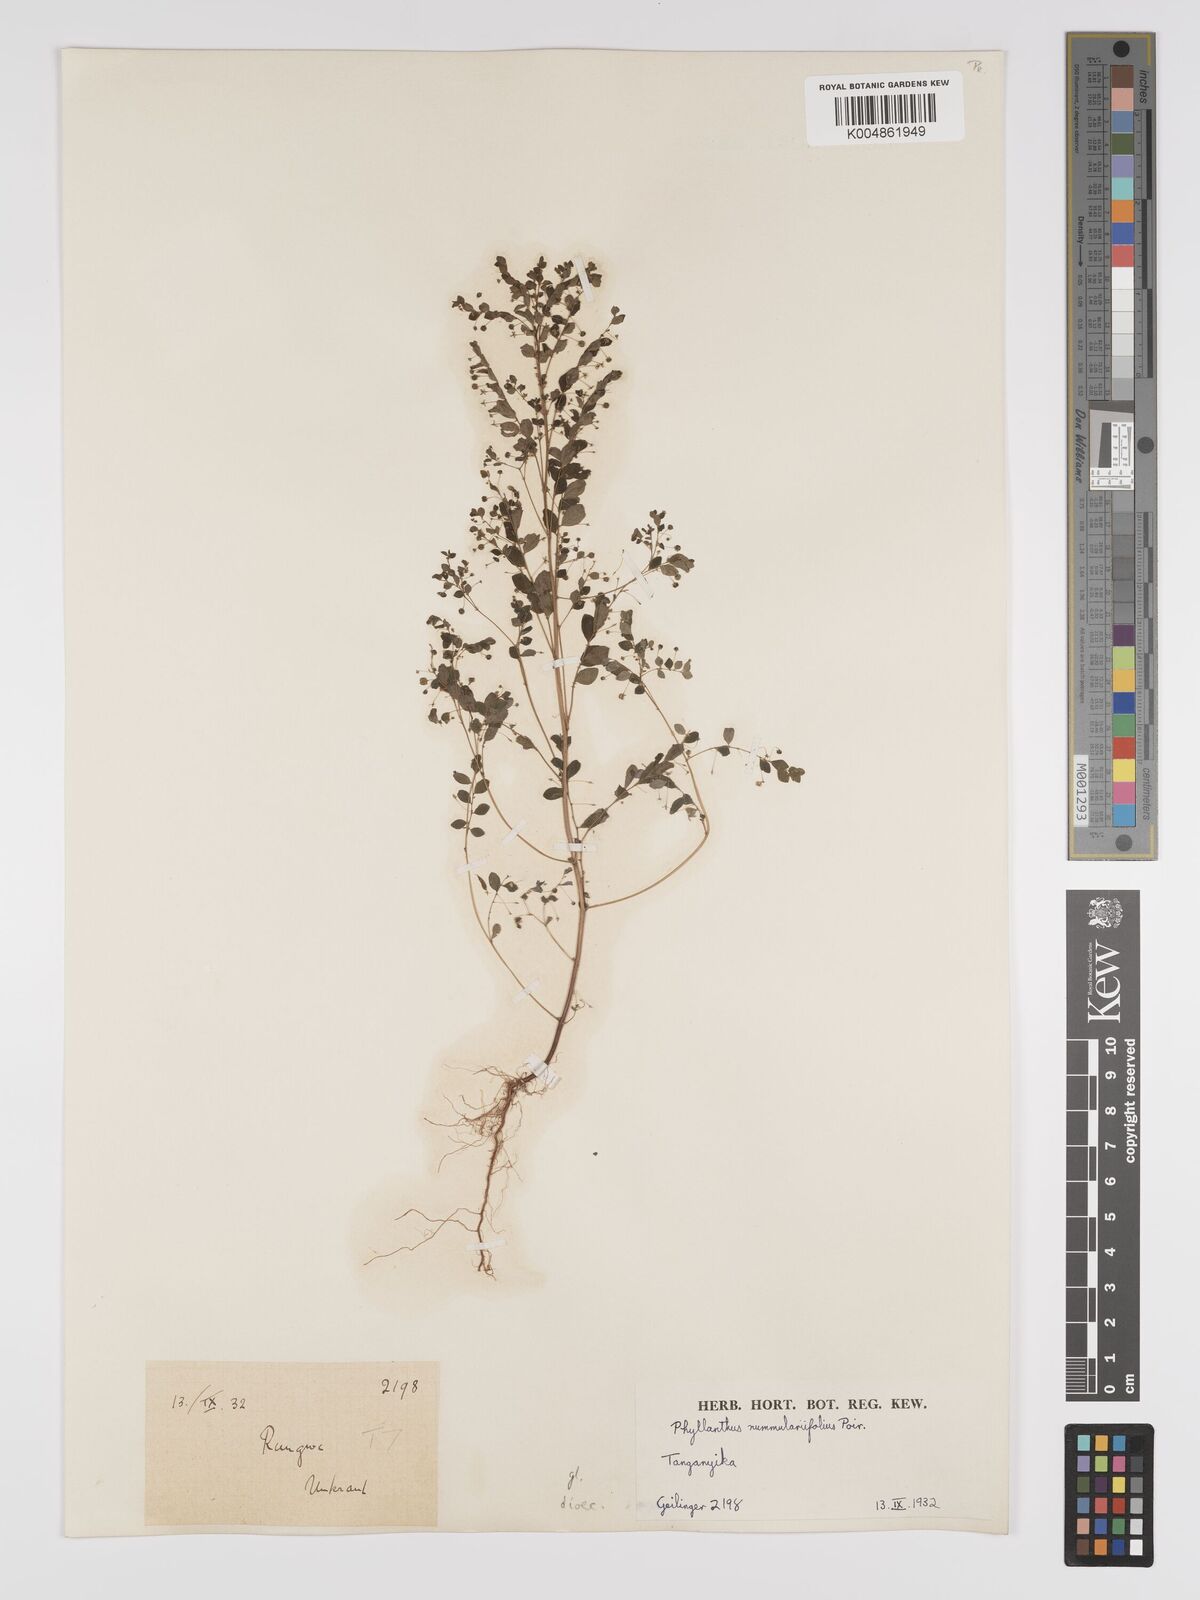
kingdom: Plantae
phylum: Tracheophyta
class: Magnoliopsida
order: Malpighiales
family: Phyllanthaceae
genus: Phyllanthus
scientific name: Phyllanthus nummulariifolius
